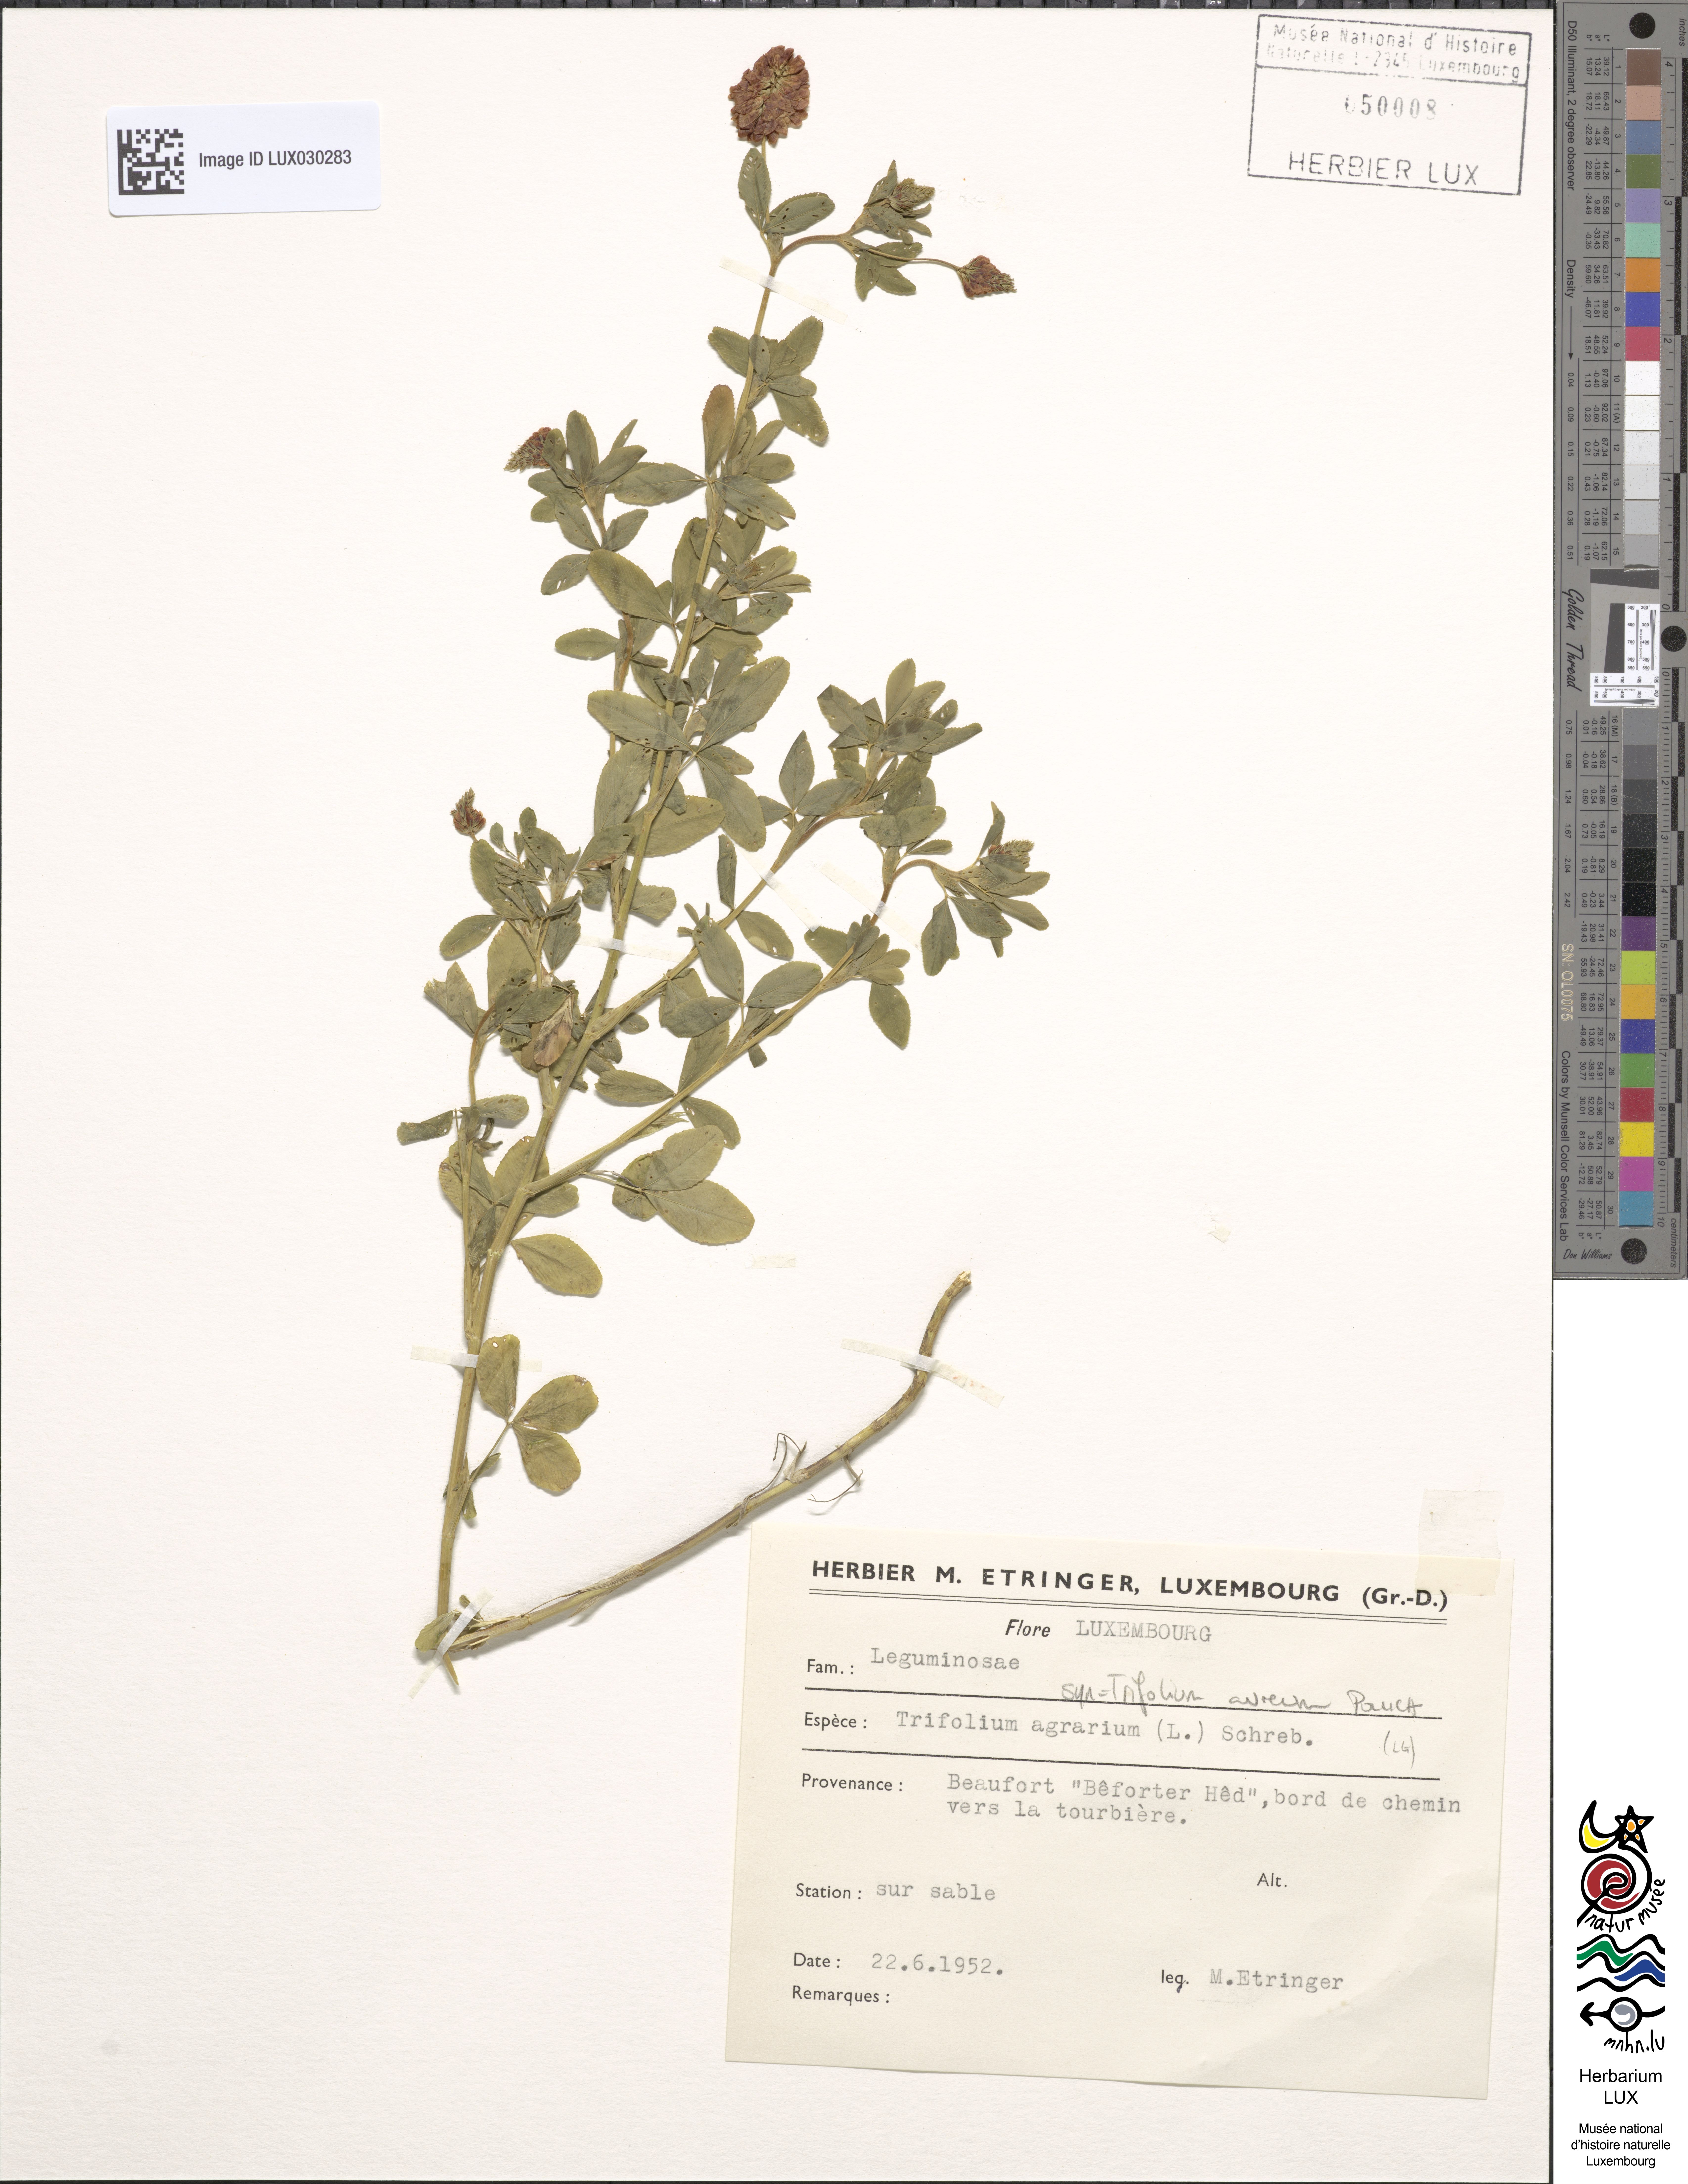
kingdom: Plantae
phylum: Tracheophyta
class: Magnoliopsida
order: Fabales
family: Fabaceae
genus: Trifolium
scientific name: Trifolium aureum
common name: Golden clover
